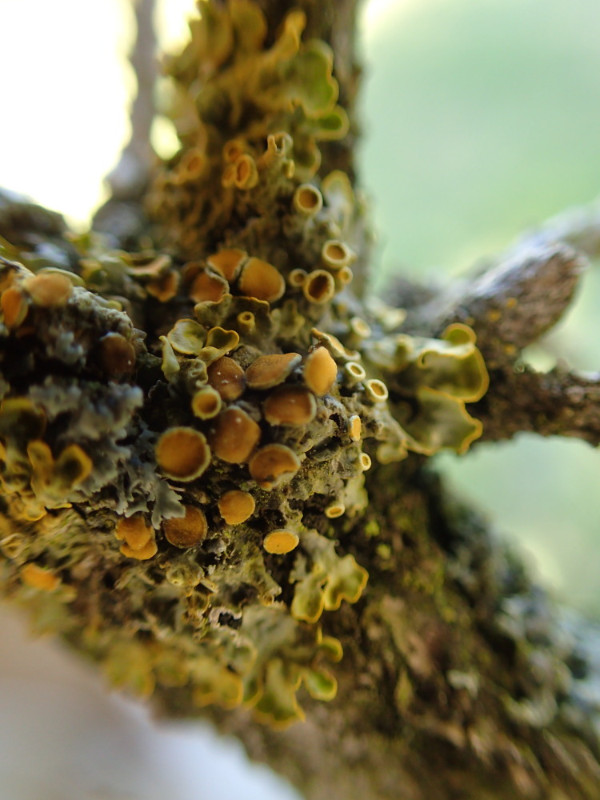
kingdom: Fungi
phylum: Ascomycota
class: Lecanoromycetes
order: Teloschistales
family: Teloschistaceae
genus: Xanthoria
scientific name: Xanthoria parietina
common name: almindelig væggelav
